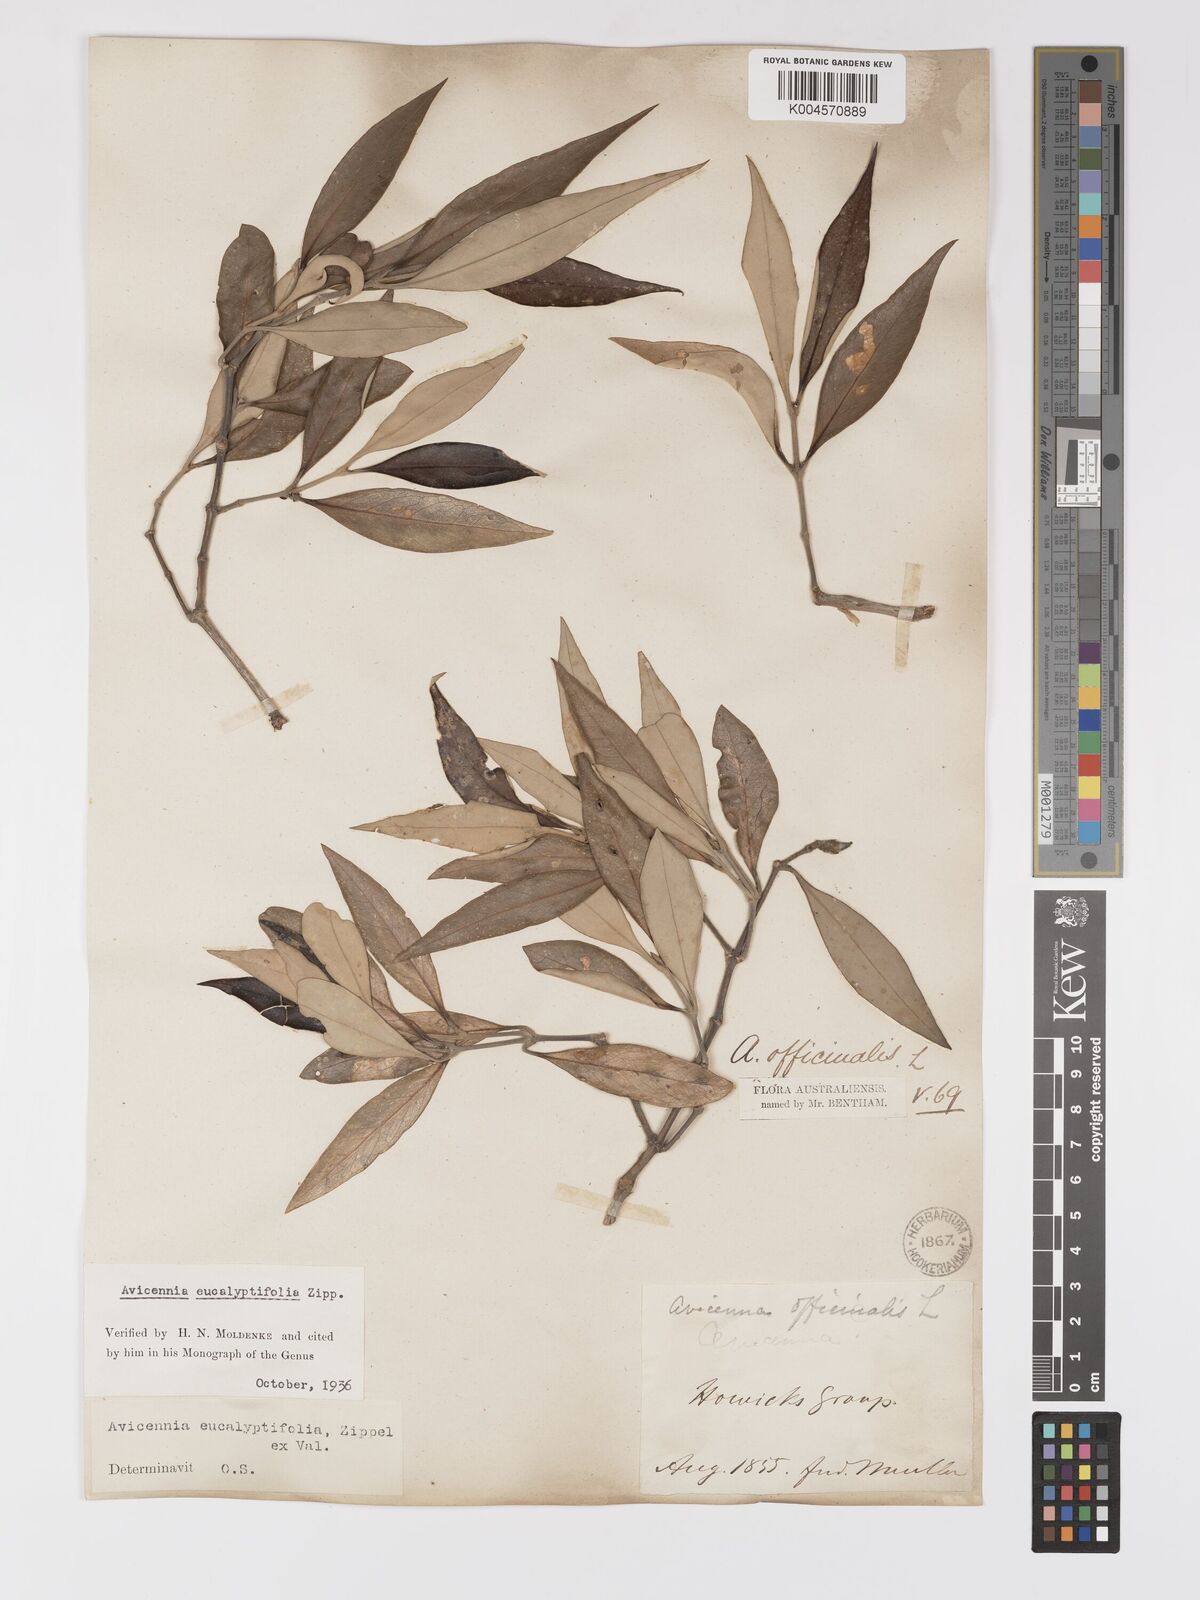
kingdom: Plantae
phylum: Tracheophyta
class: Magnoliopsida
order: Lamiales
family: Acanthaceae
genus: Avicennia
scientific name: Avicennia marina
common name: Gray mangrove
